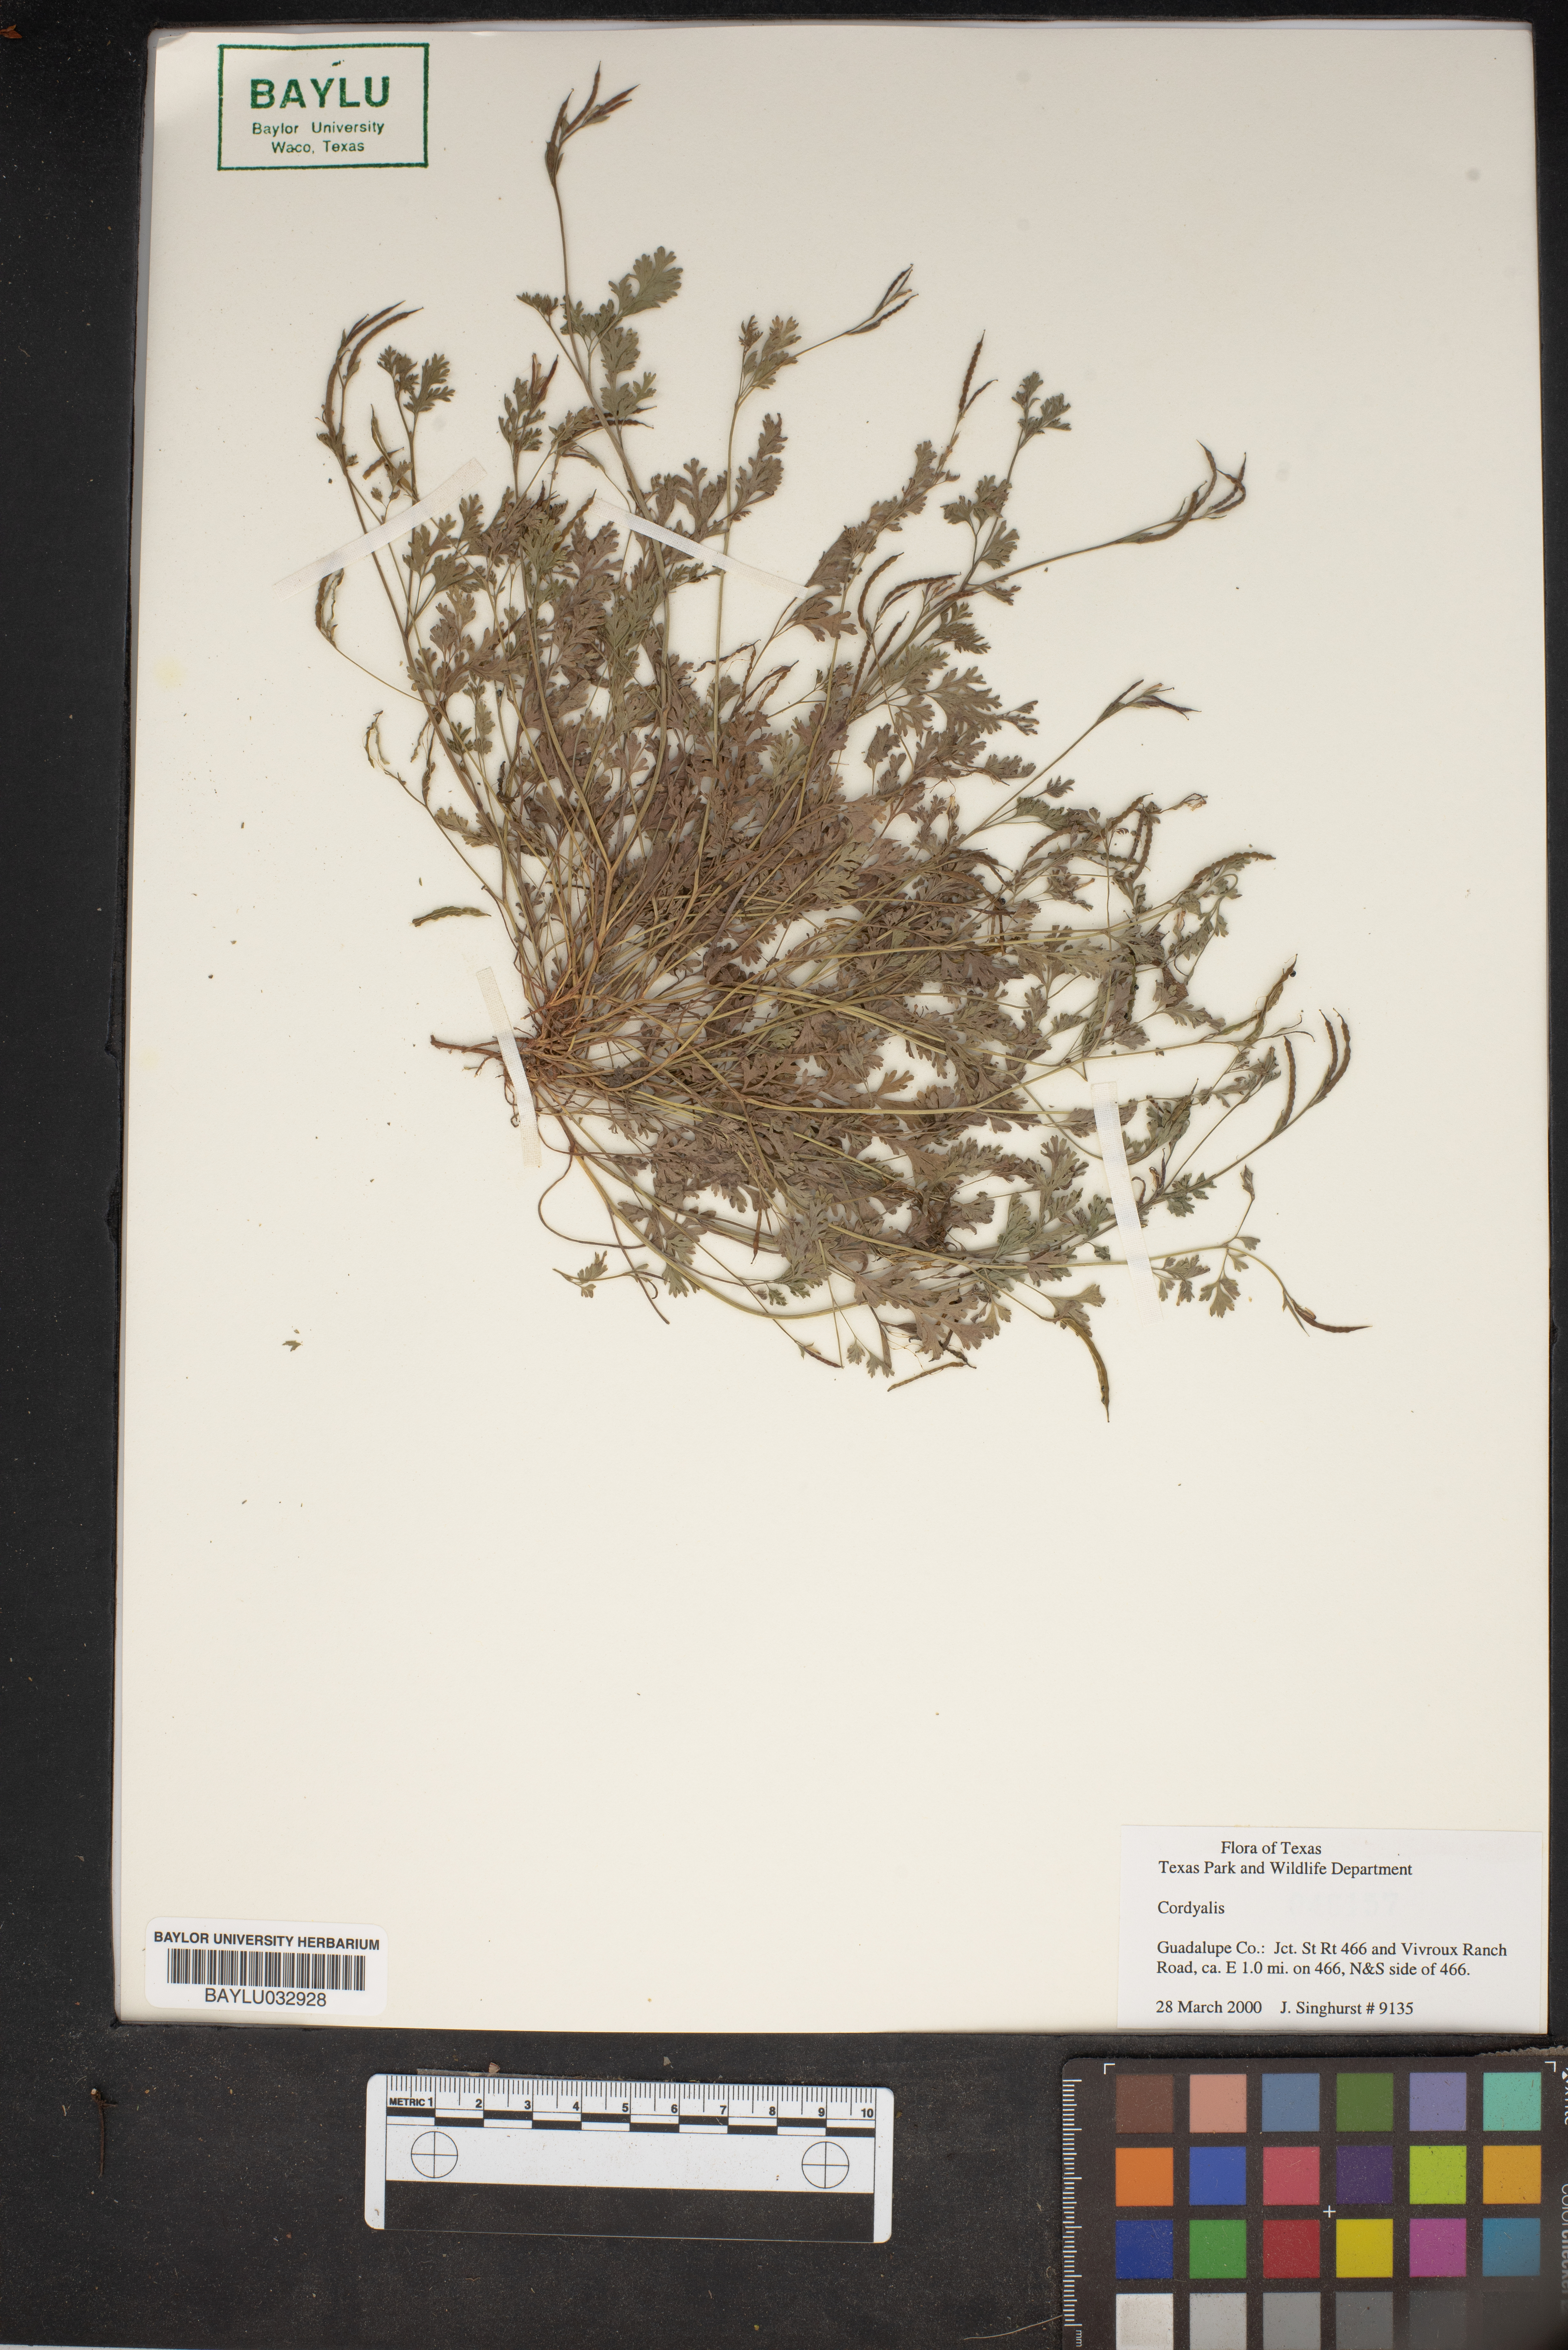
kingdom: Plantae
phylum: Tracheophyta
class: Magnoliopsida
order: Ranunculales
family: Papaveraceae
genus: Corydalis
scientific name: Corydalis
